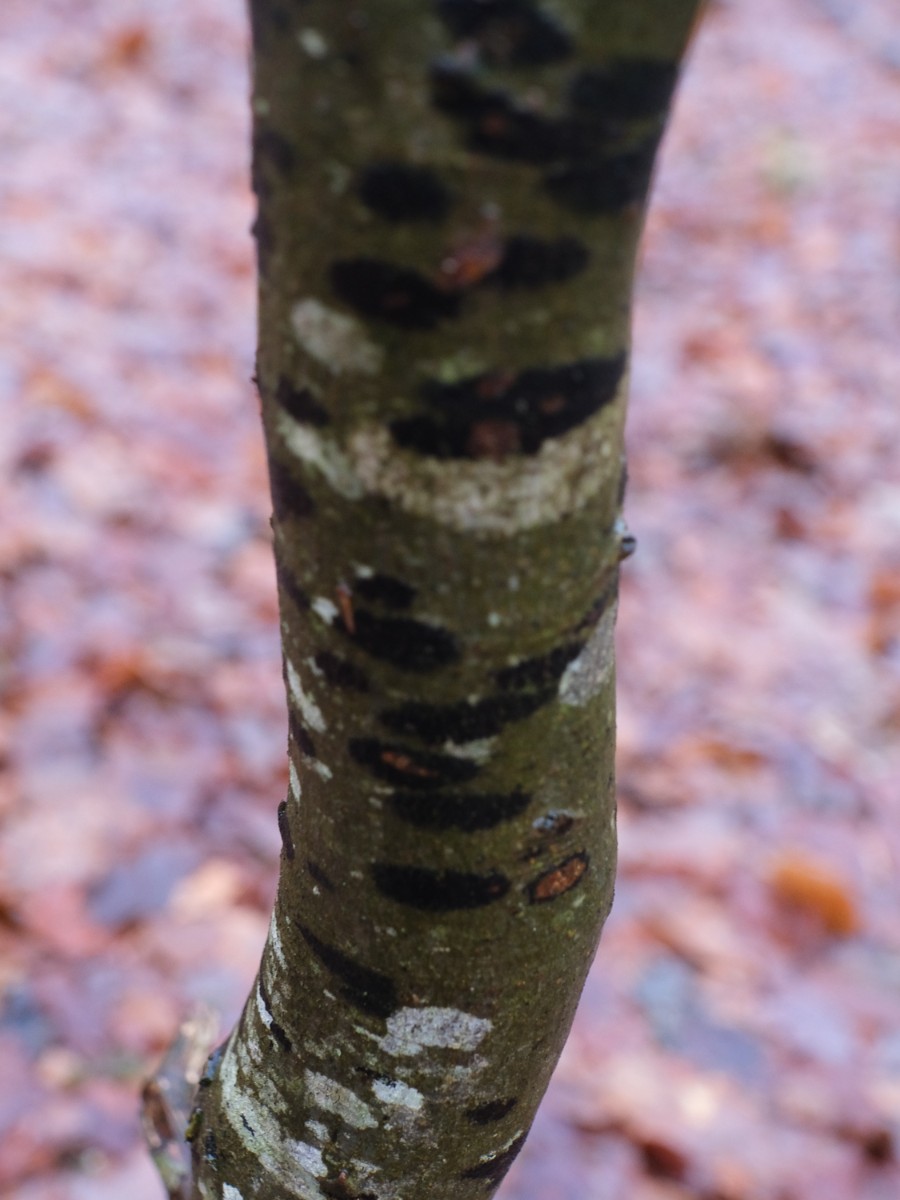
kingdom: Fungi
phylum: Ascomycota
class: Leotiomycetes
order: Rhytismatales
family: Ascodichaenaceae
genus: Ascodichaena
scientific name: Ascodichaena rugosa
